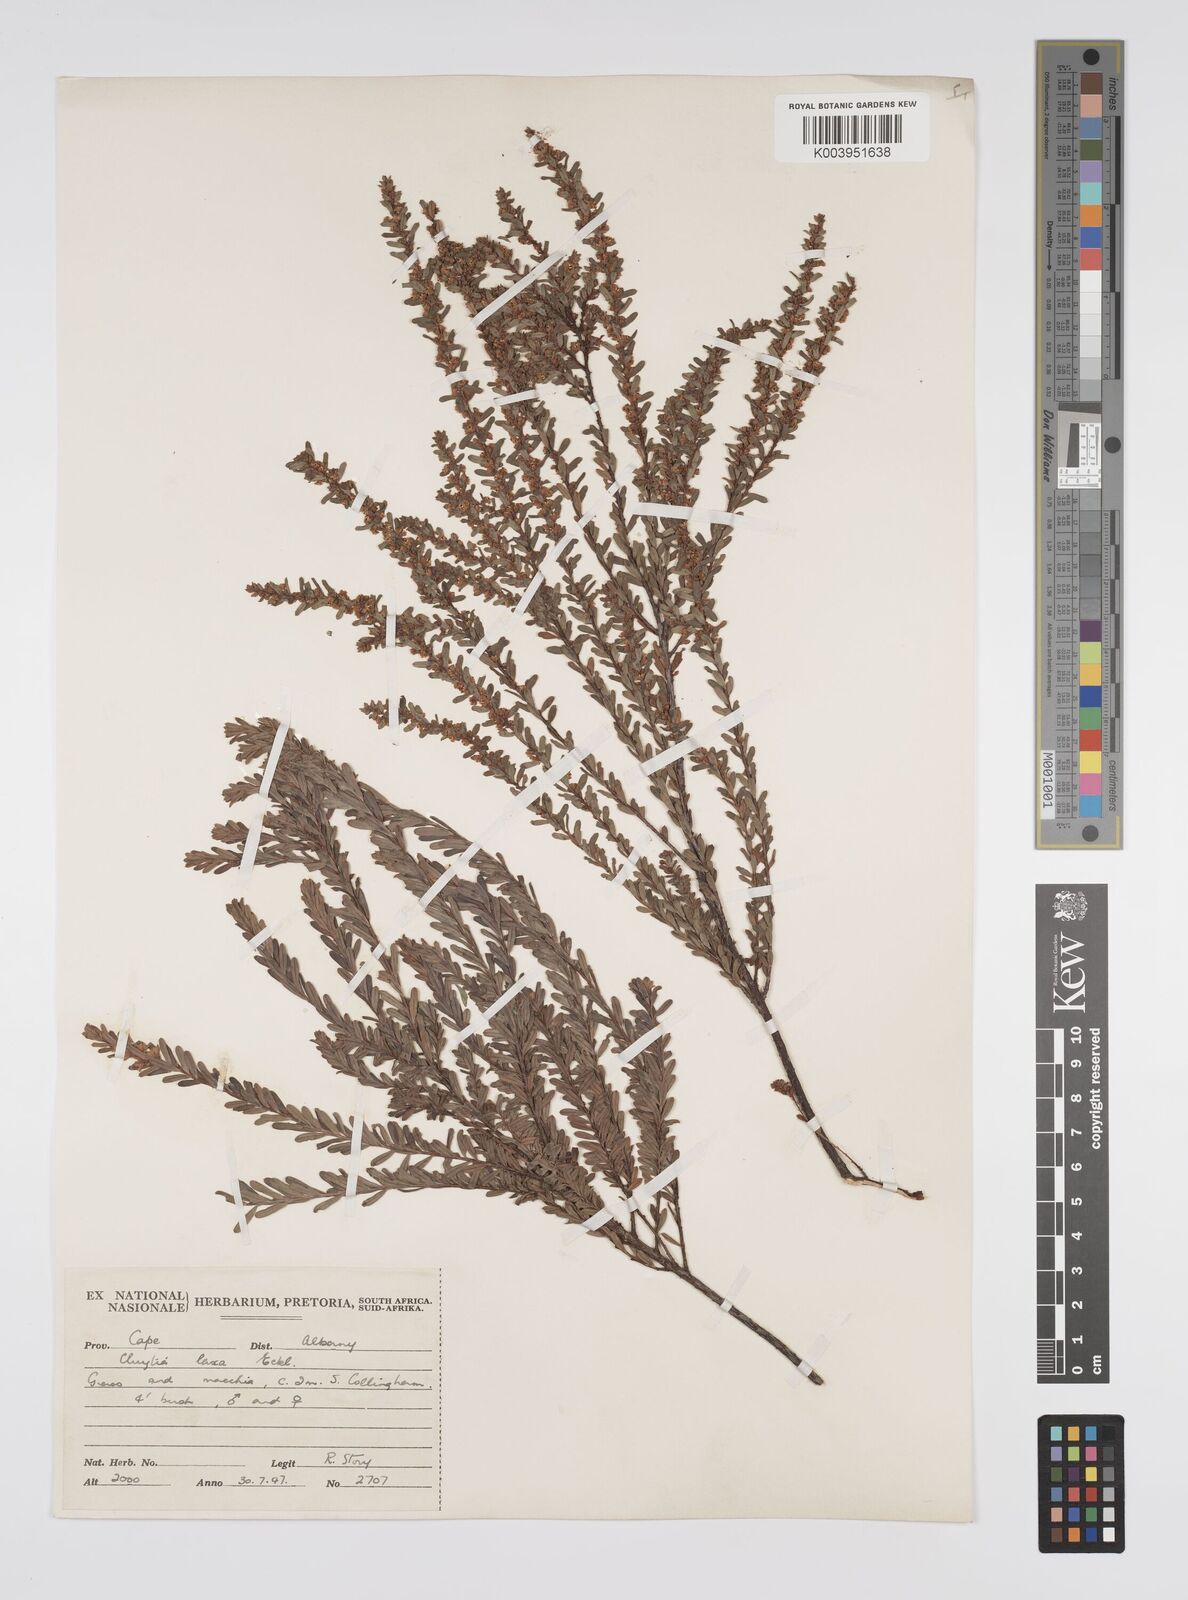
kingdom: Plantae
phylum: Tracheophyta
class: Magnoliopsida
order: Malpighiales
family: Peraceae
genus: Clutia
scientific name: Clutia laxa
